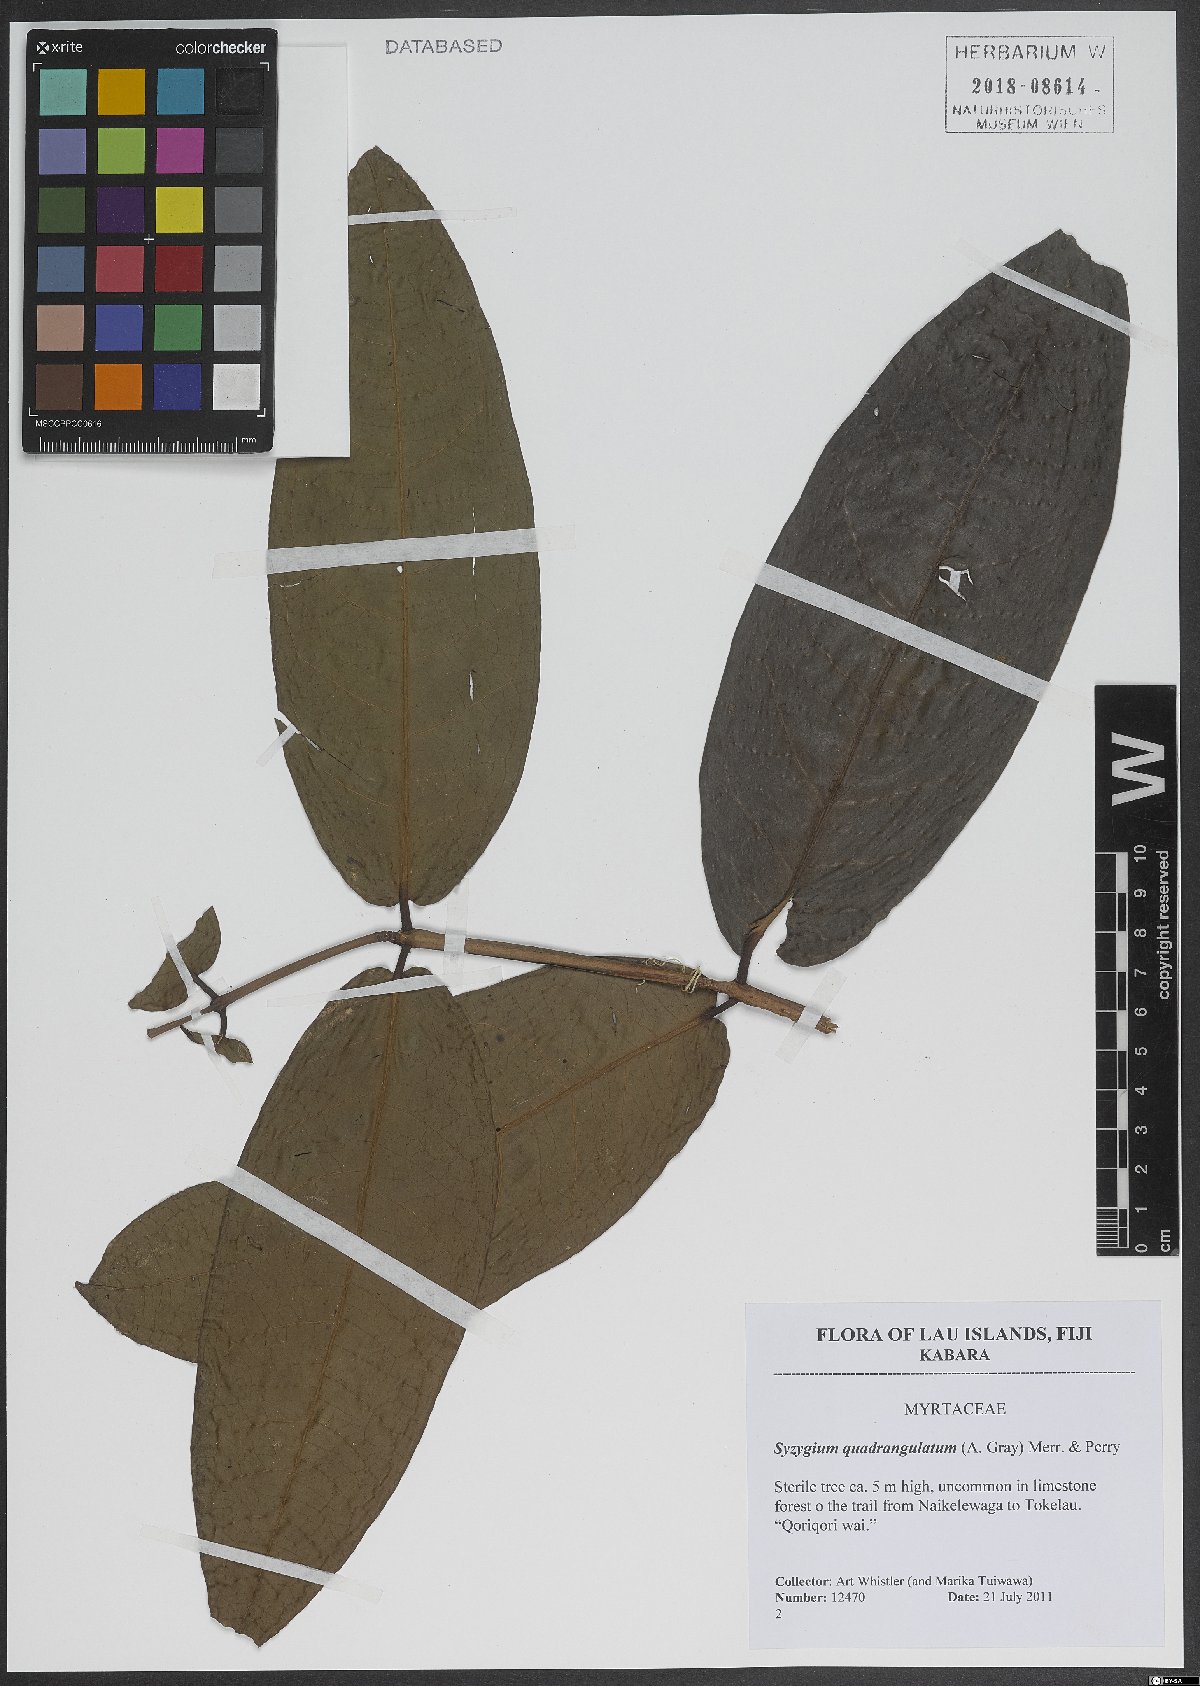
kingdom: Plantae
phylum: Tracheophyta
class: Magnoliopsida
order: Myrtales
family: Myrtaceae
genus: Syzygium
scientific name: Syzygium quadrangulatum
